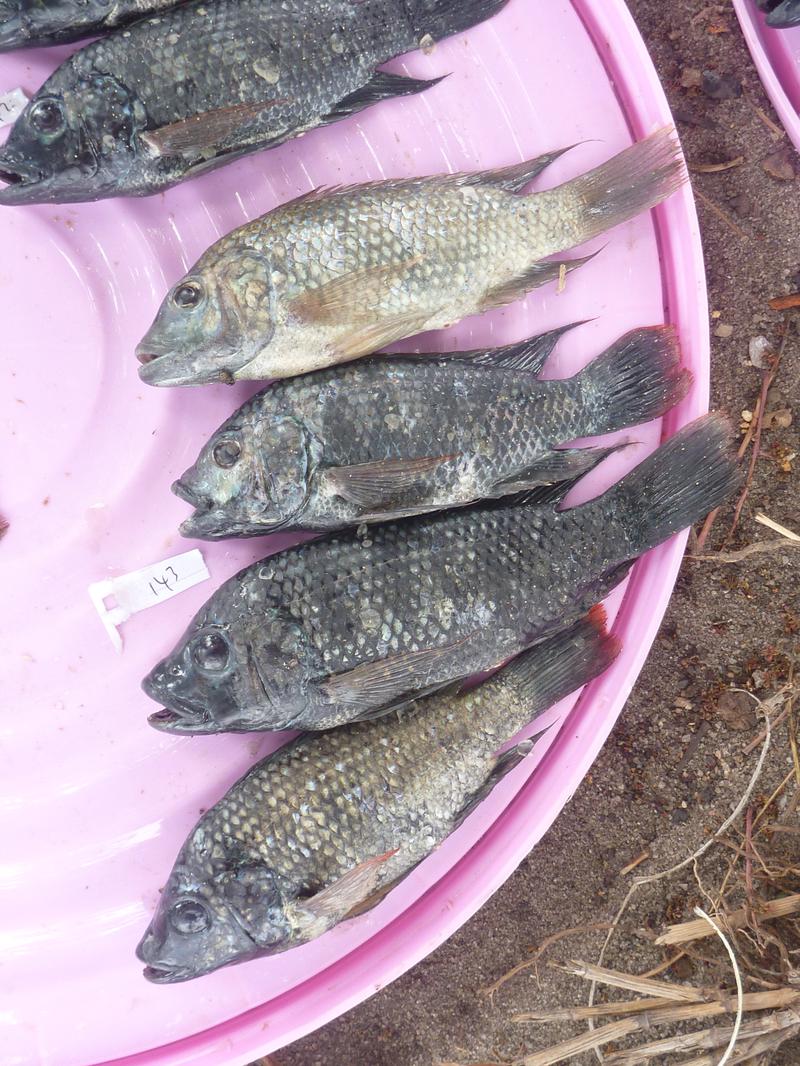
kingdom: Animalia
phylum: Chordata
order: Perciformes
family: Cichlidae
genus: Oreochromis
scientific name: Oreochromis shiranus
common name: Chilwa tilapia
